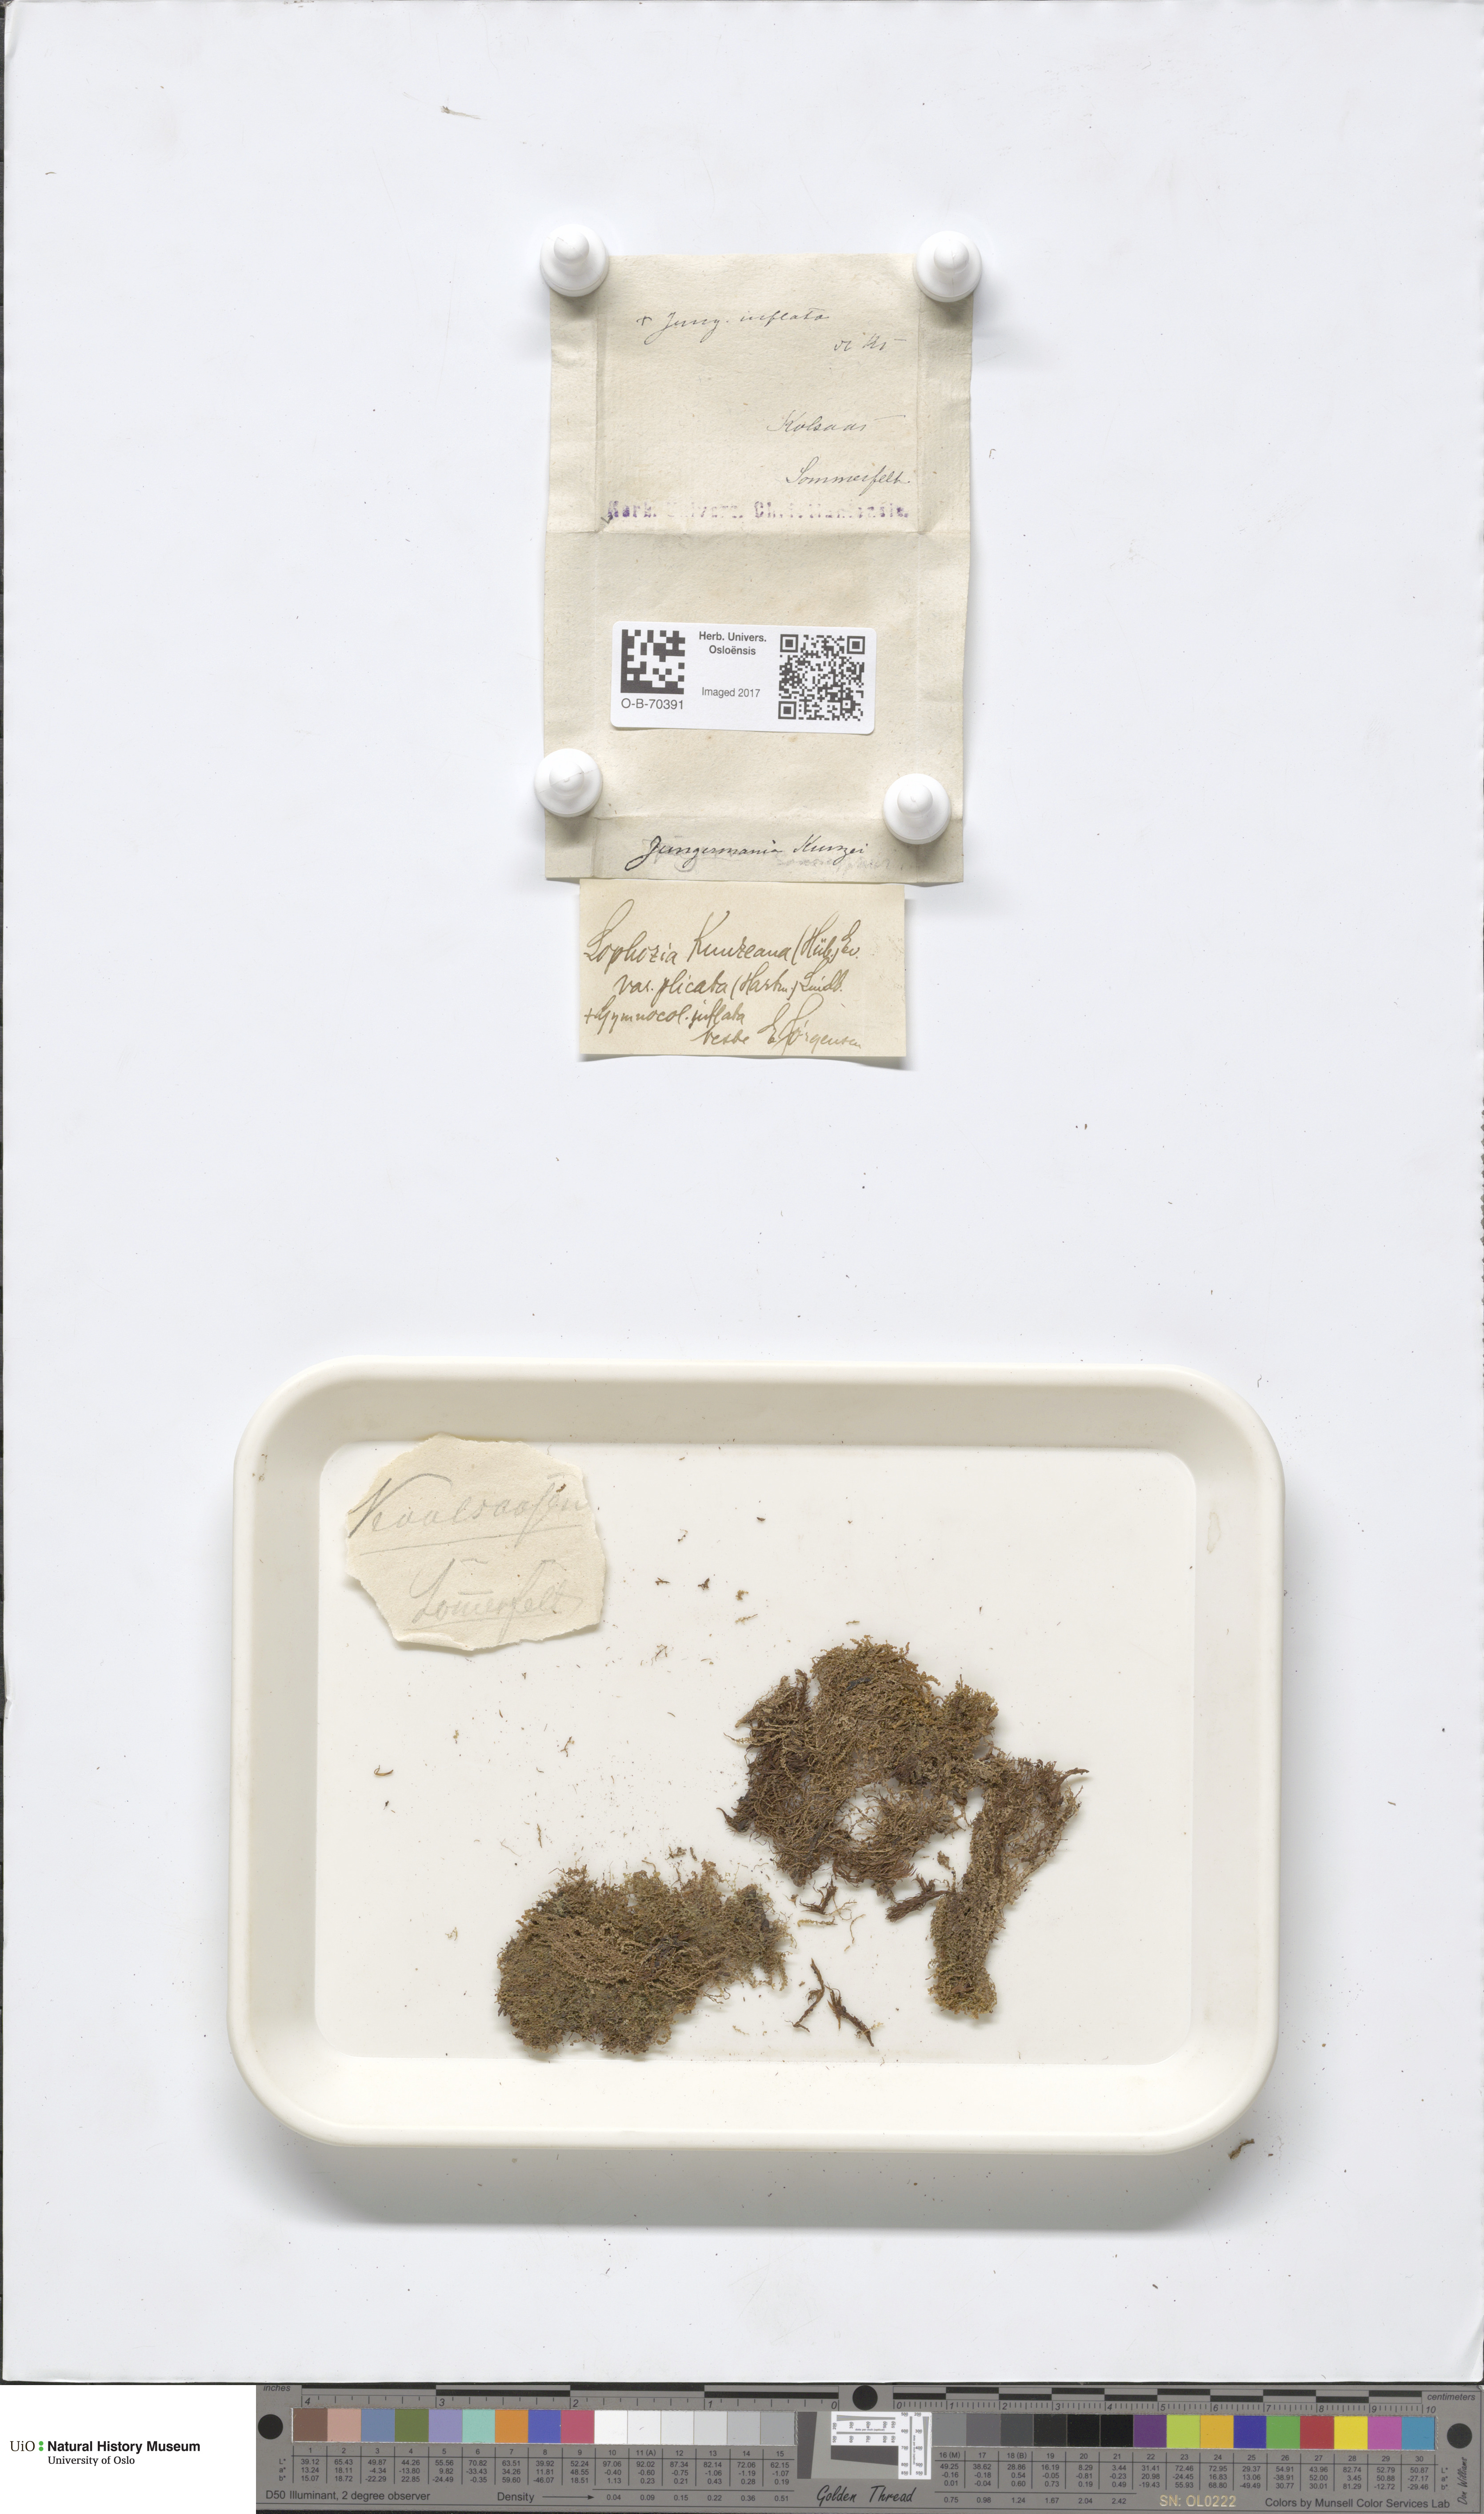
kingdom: Plantae
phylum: Marchantiophyta
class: Jungermanniopsida
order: Jungermanniales
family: Anastrophyllaceae
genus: Schljakovia
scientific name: Schljakovia kunzeana
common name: Kunze's pawwort
